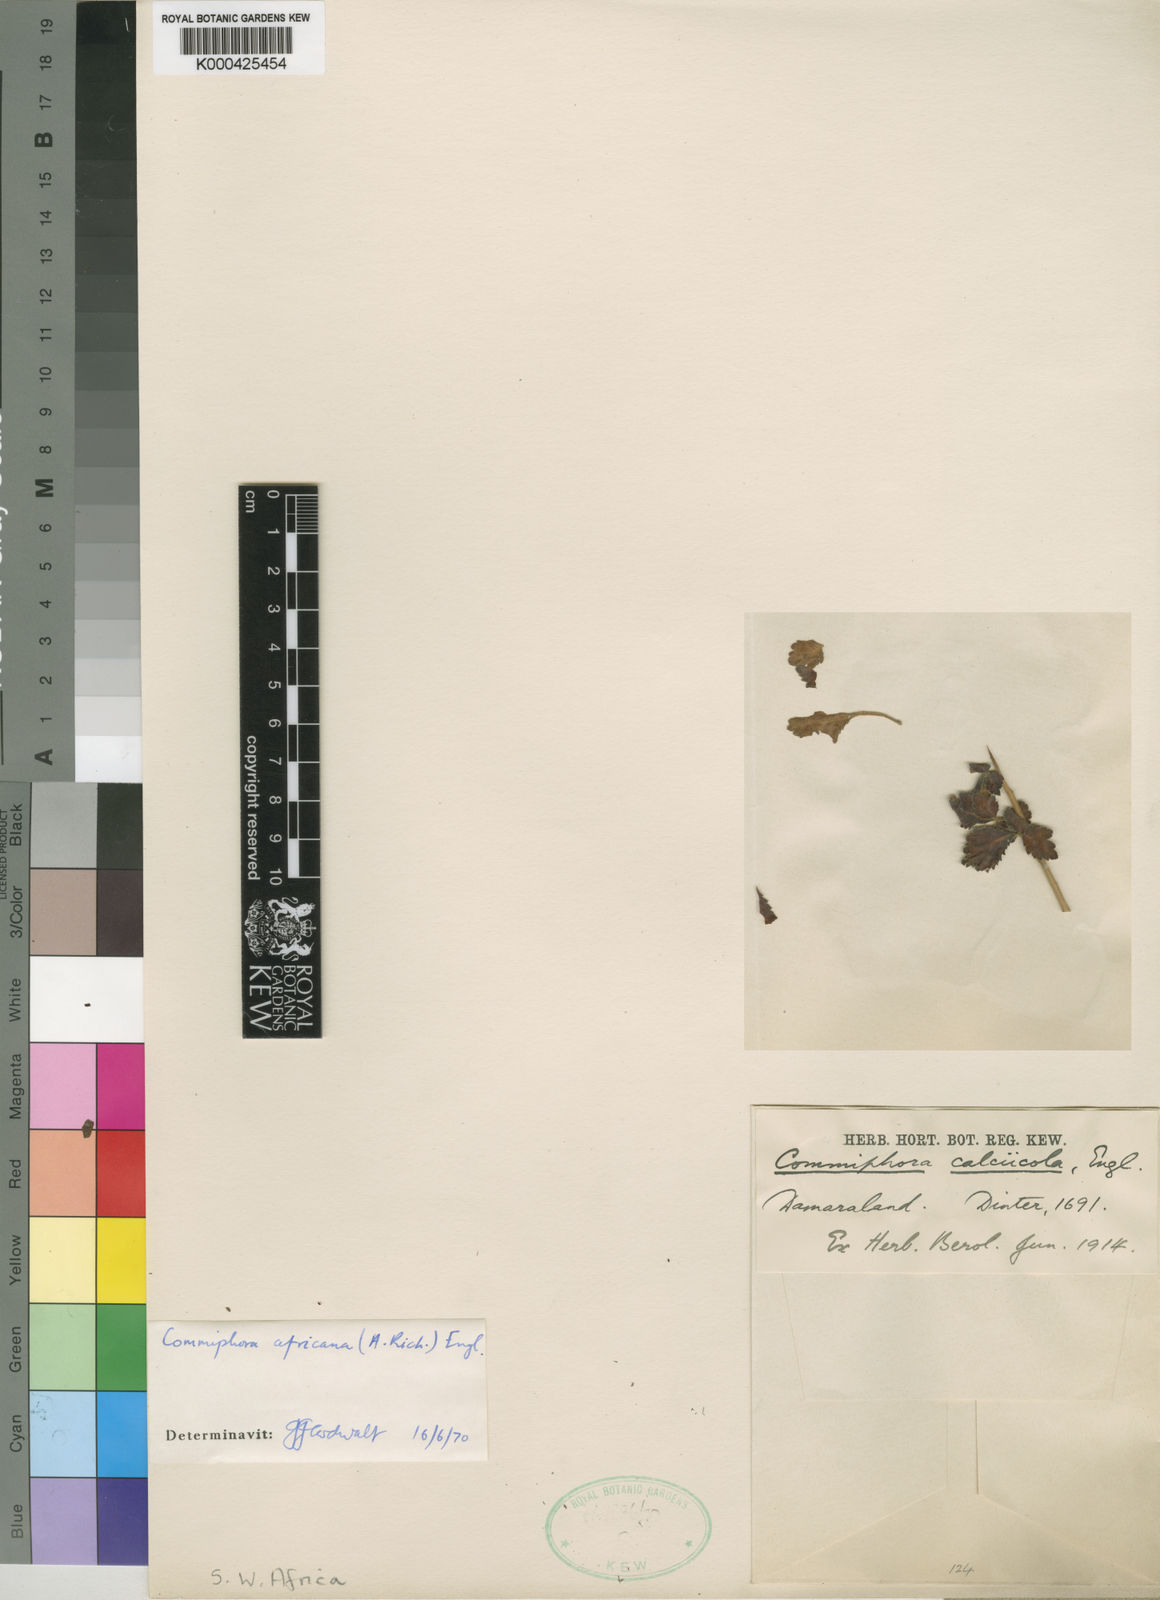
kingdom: Plantae
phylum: Tracheophyta
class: Magnoliopsida
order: Sapindales
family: Burseraceae
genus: Commiphora
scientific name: Commiphora africana
